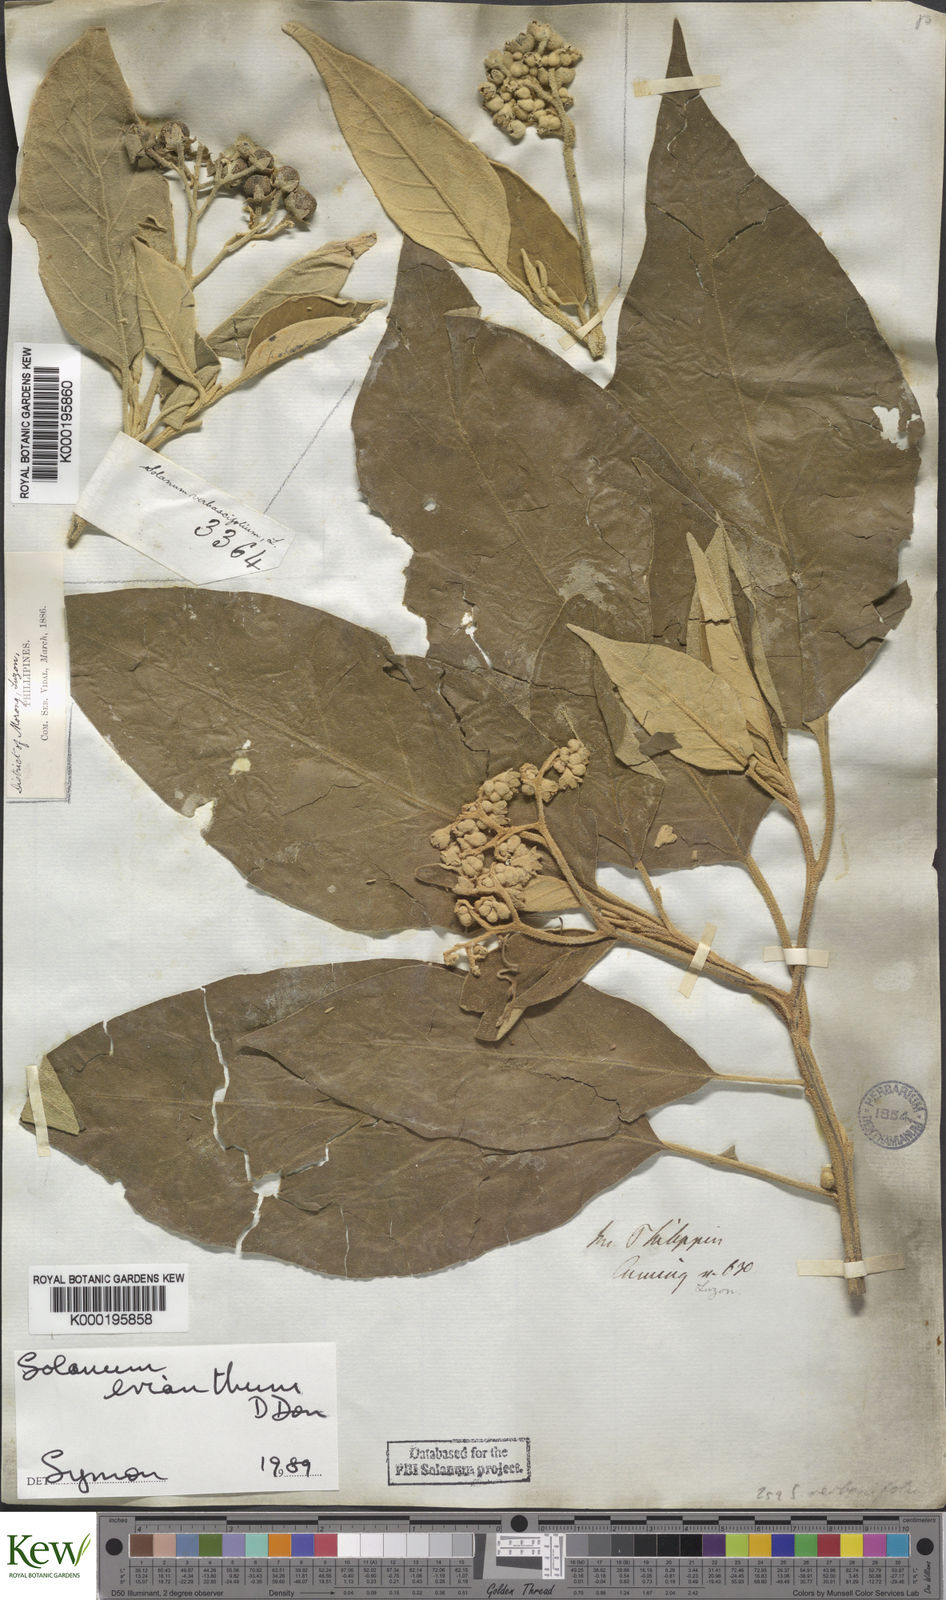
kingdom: Plantae
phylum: Tracheophyta
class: Magnoliopsida
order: Solanales
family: Solanaceae
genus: Solanum
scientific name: Solanum erianthum
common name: Tobacco-tree
